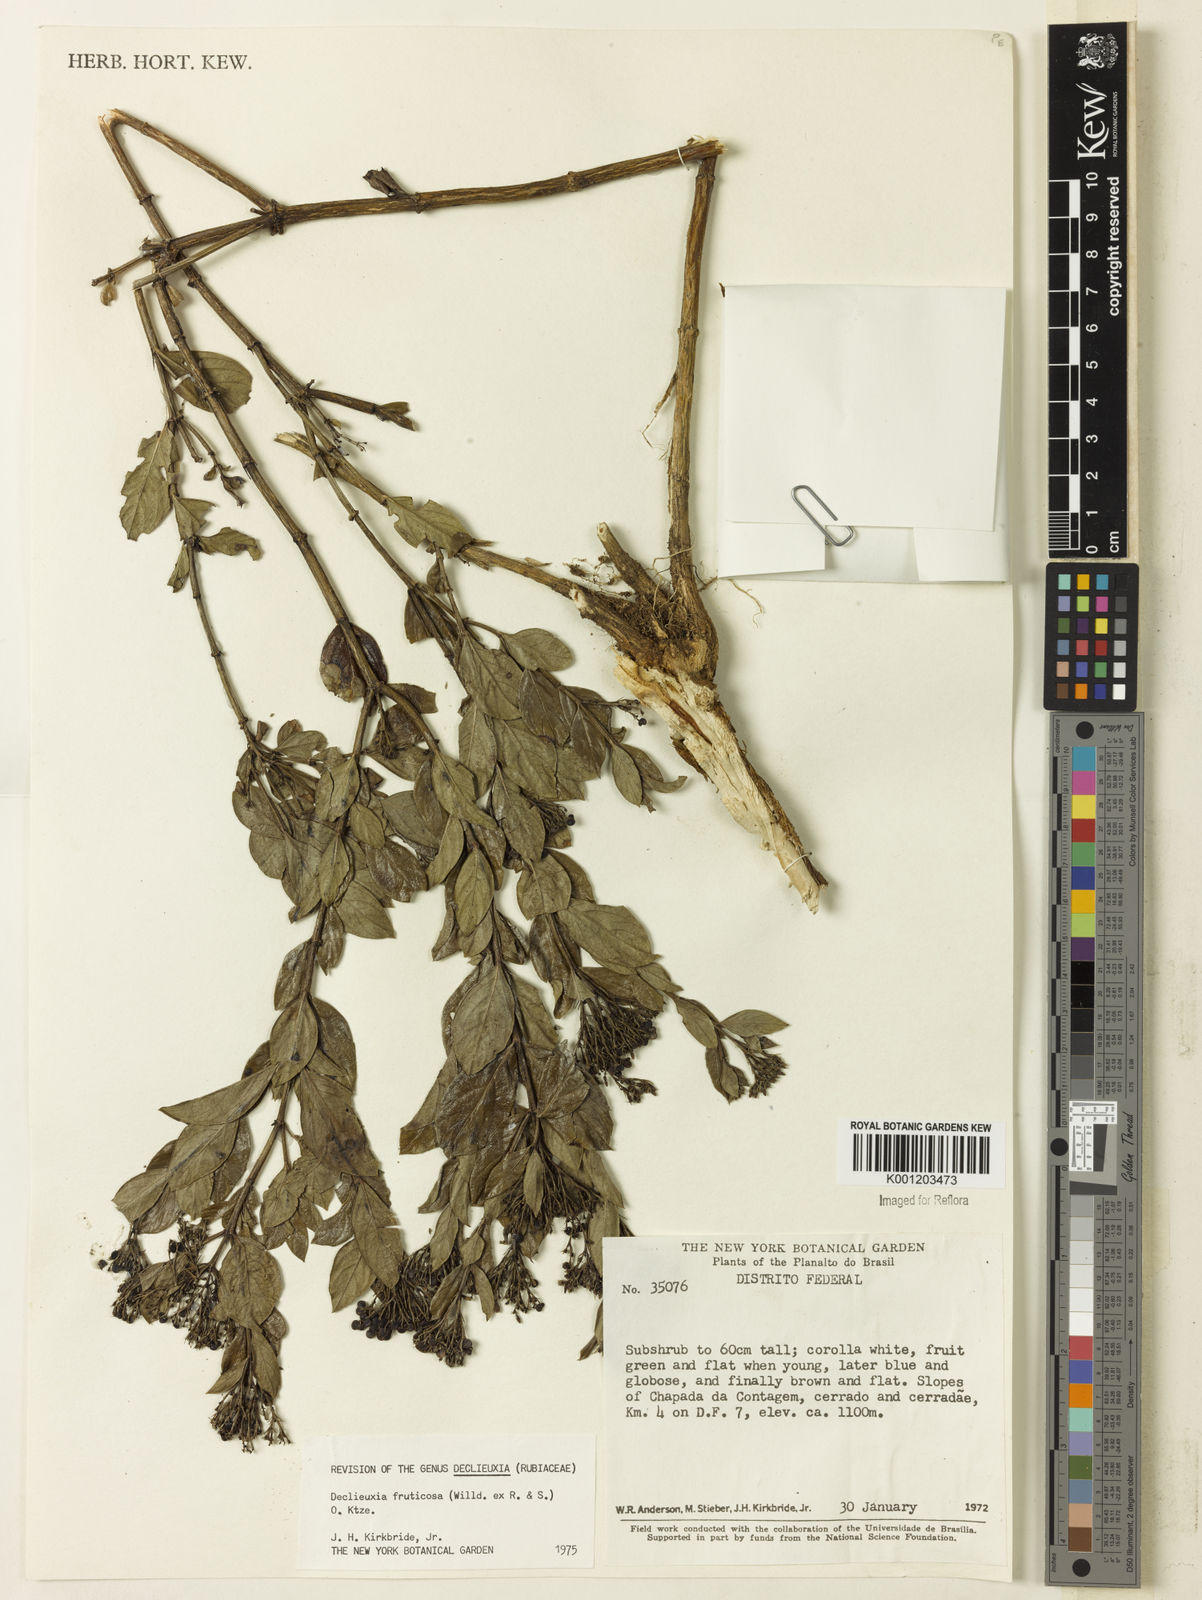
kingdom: Plantae
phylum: Tracheophyta
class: Magnoliopsida
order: Gentianales
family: Rubiaceae
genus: Declieuxia
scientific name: Declieuxia fruticosa
